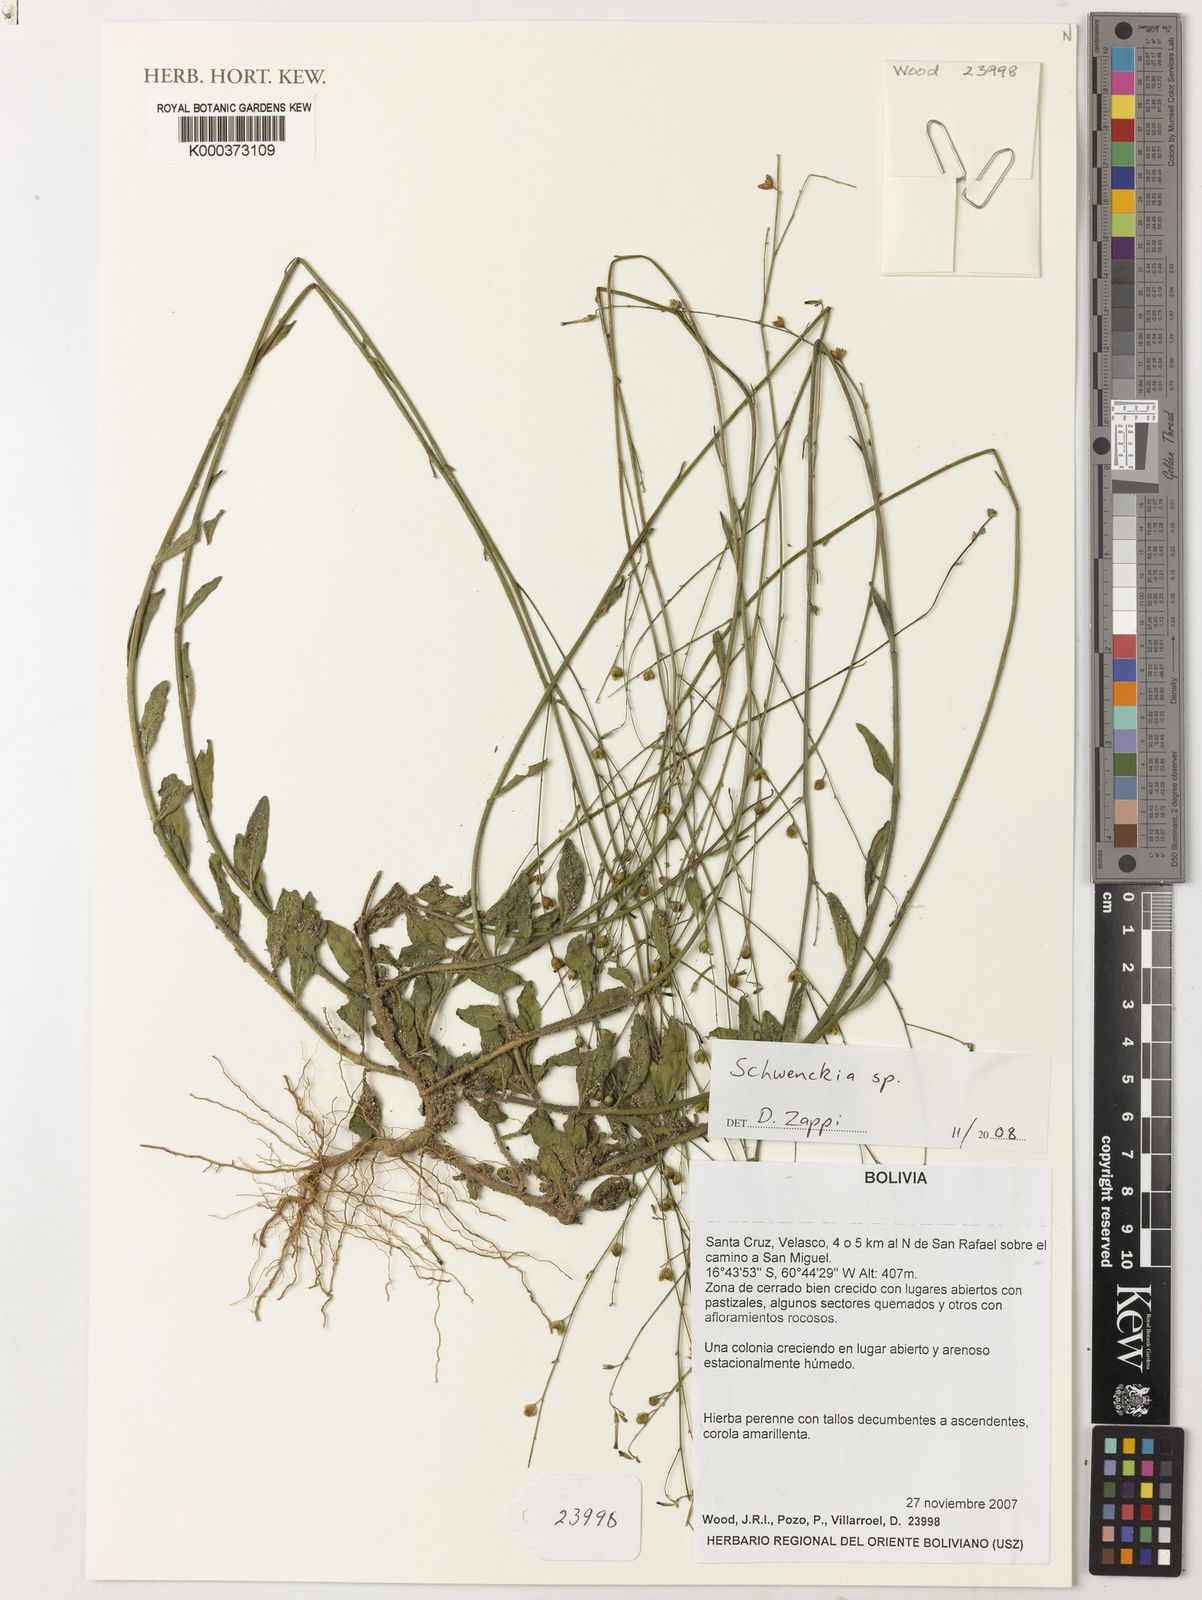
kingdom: Plantae
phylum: Tracheophyta
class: Magnoliopsida
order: Solanales
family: Solanaceae
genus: Schwenckia
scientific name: Schwenckia
